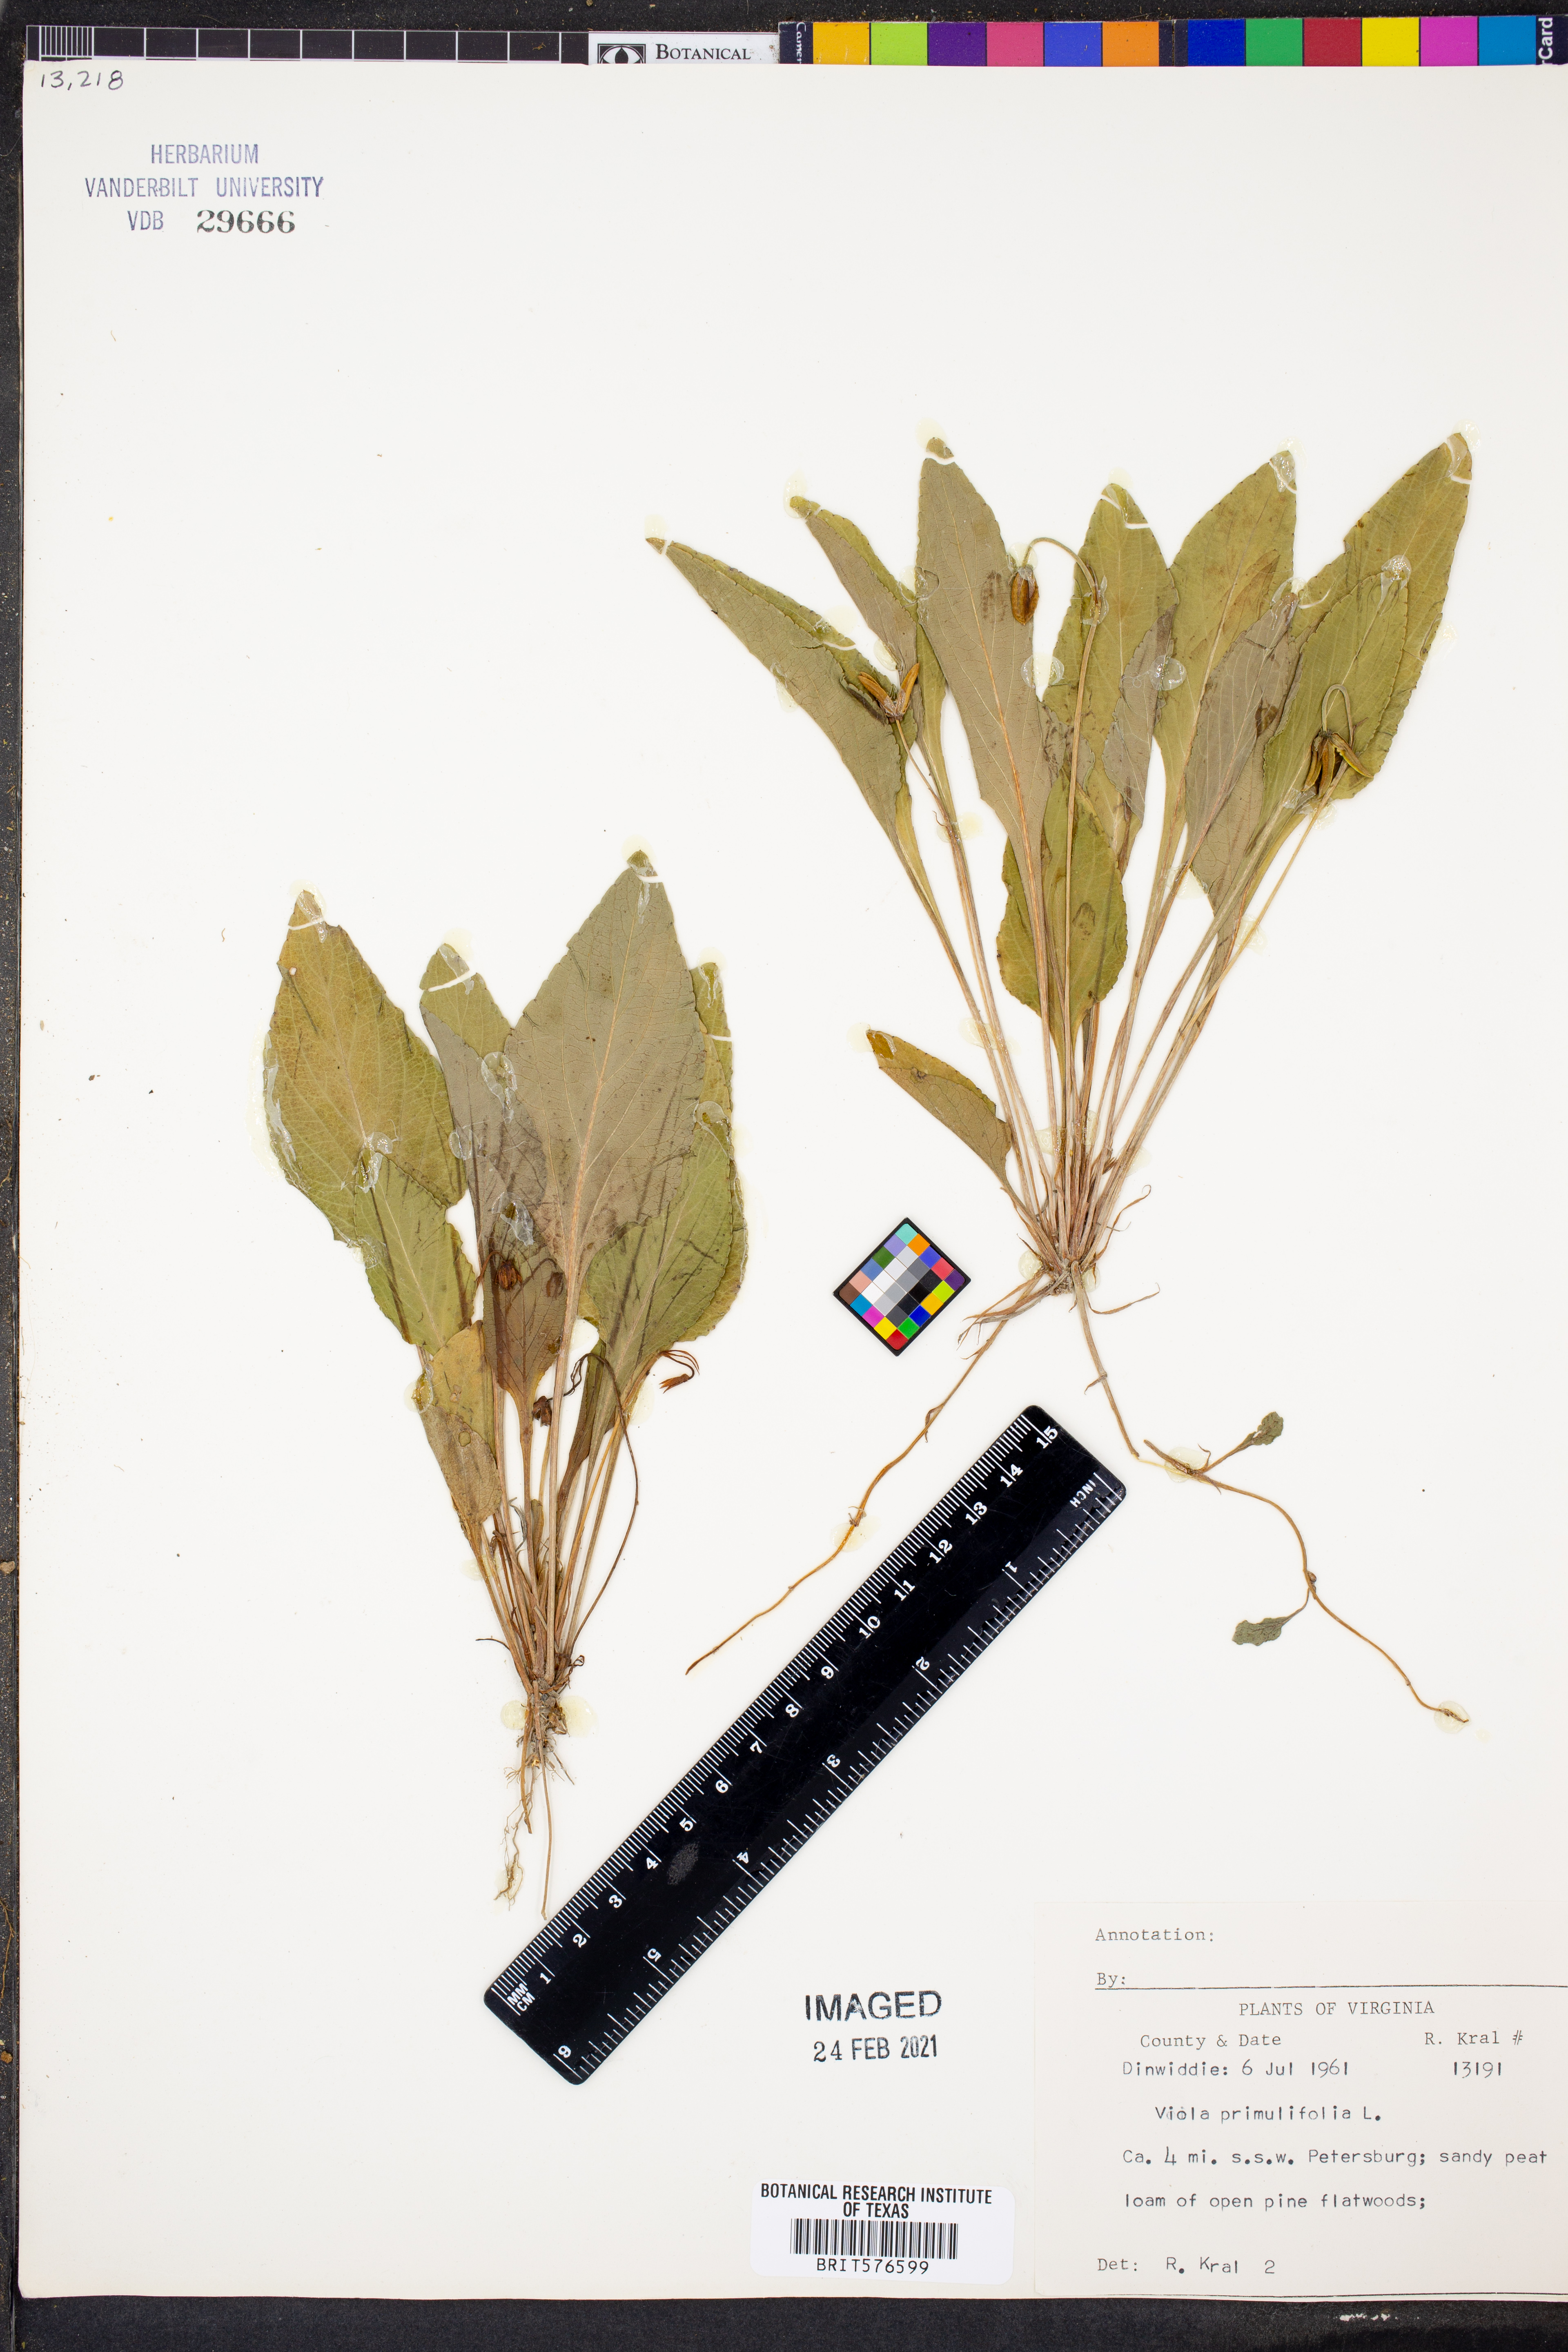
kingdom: Plantae
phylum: Tracheophyta
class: Magnoliopsida
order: Malpighiales
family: Violaceae
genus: Viola
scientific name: Viola primulifolia
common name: Primrose-leaf violet
